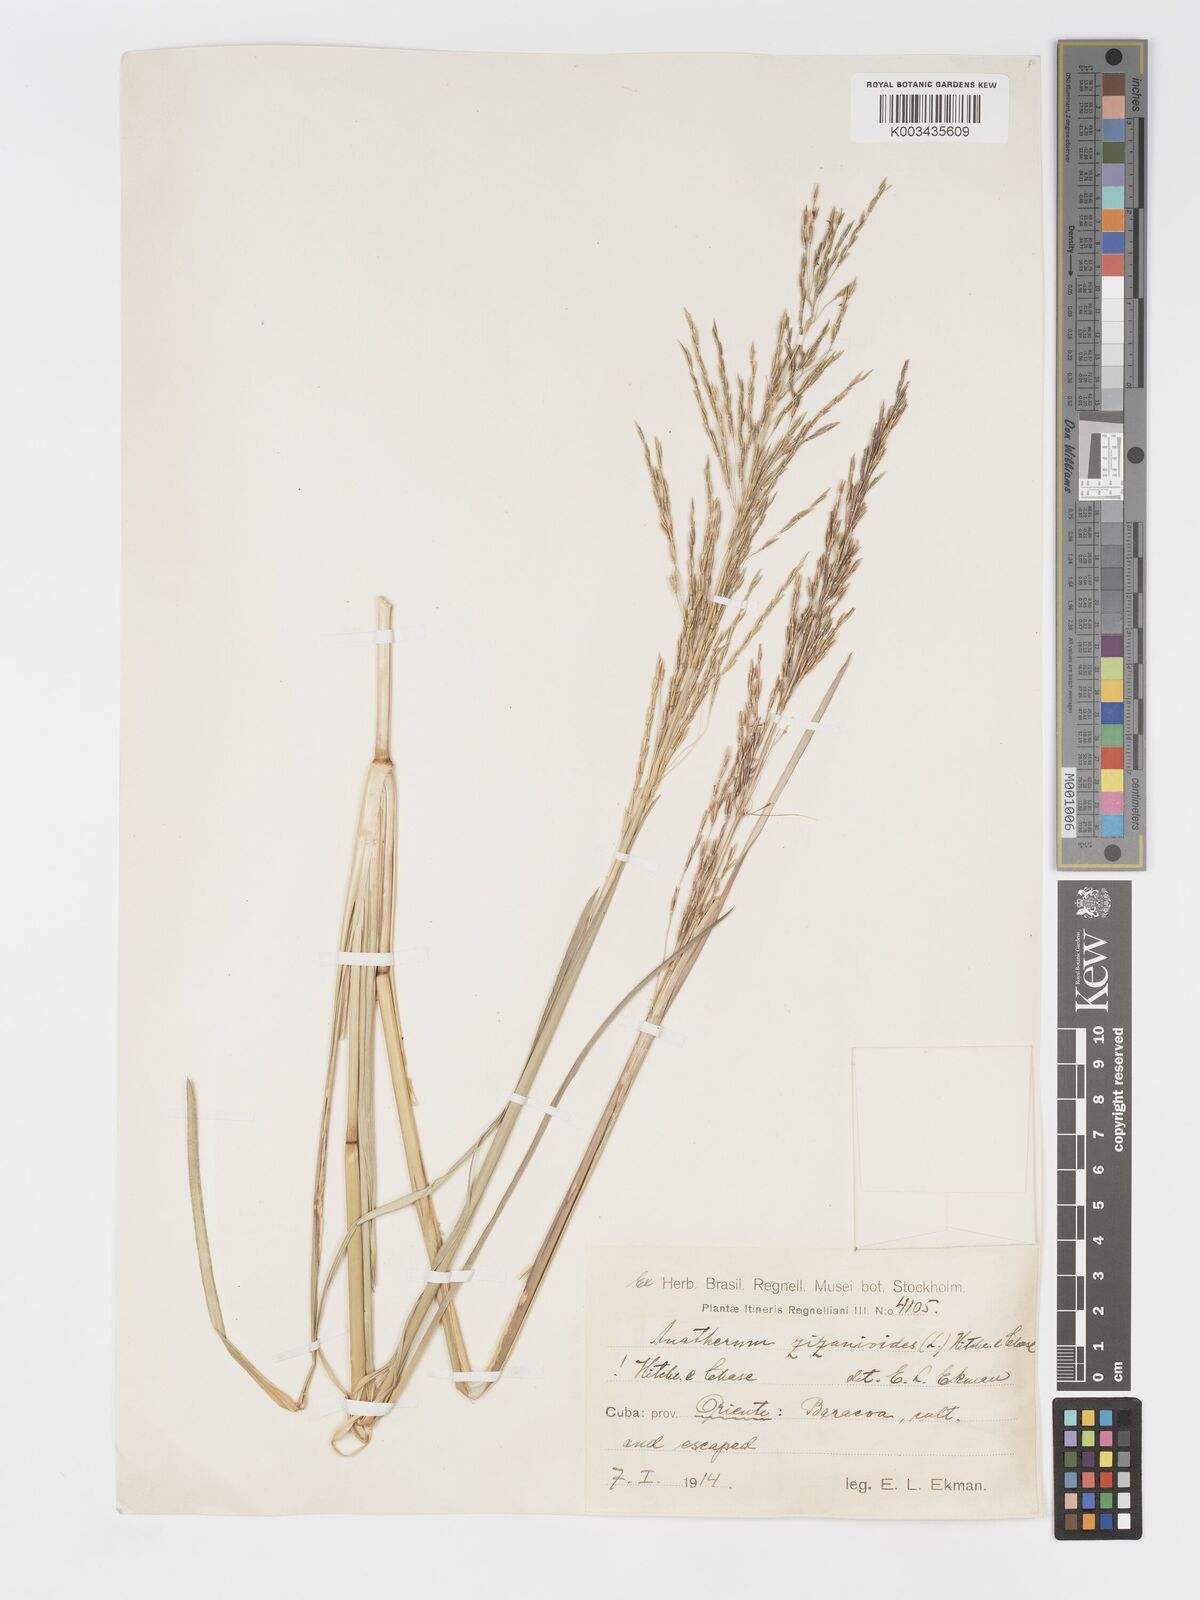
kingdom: Plantae
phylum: Tracheophyta
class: Liliopsida
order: Poales
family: Poaceae
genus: Chrysopogon
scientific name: Chrysopogon zizanioides
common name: False beardgrass
